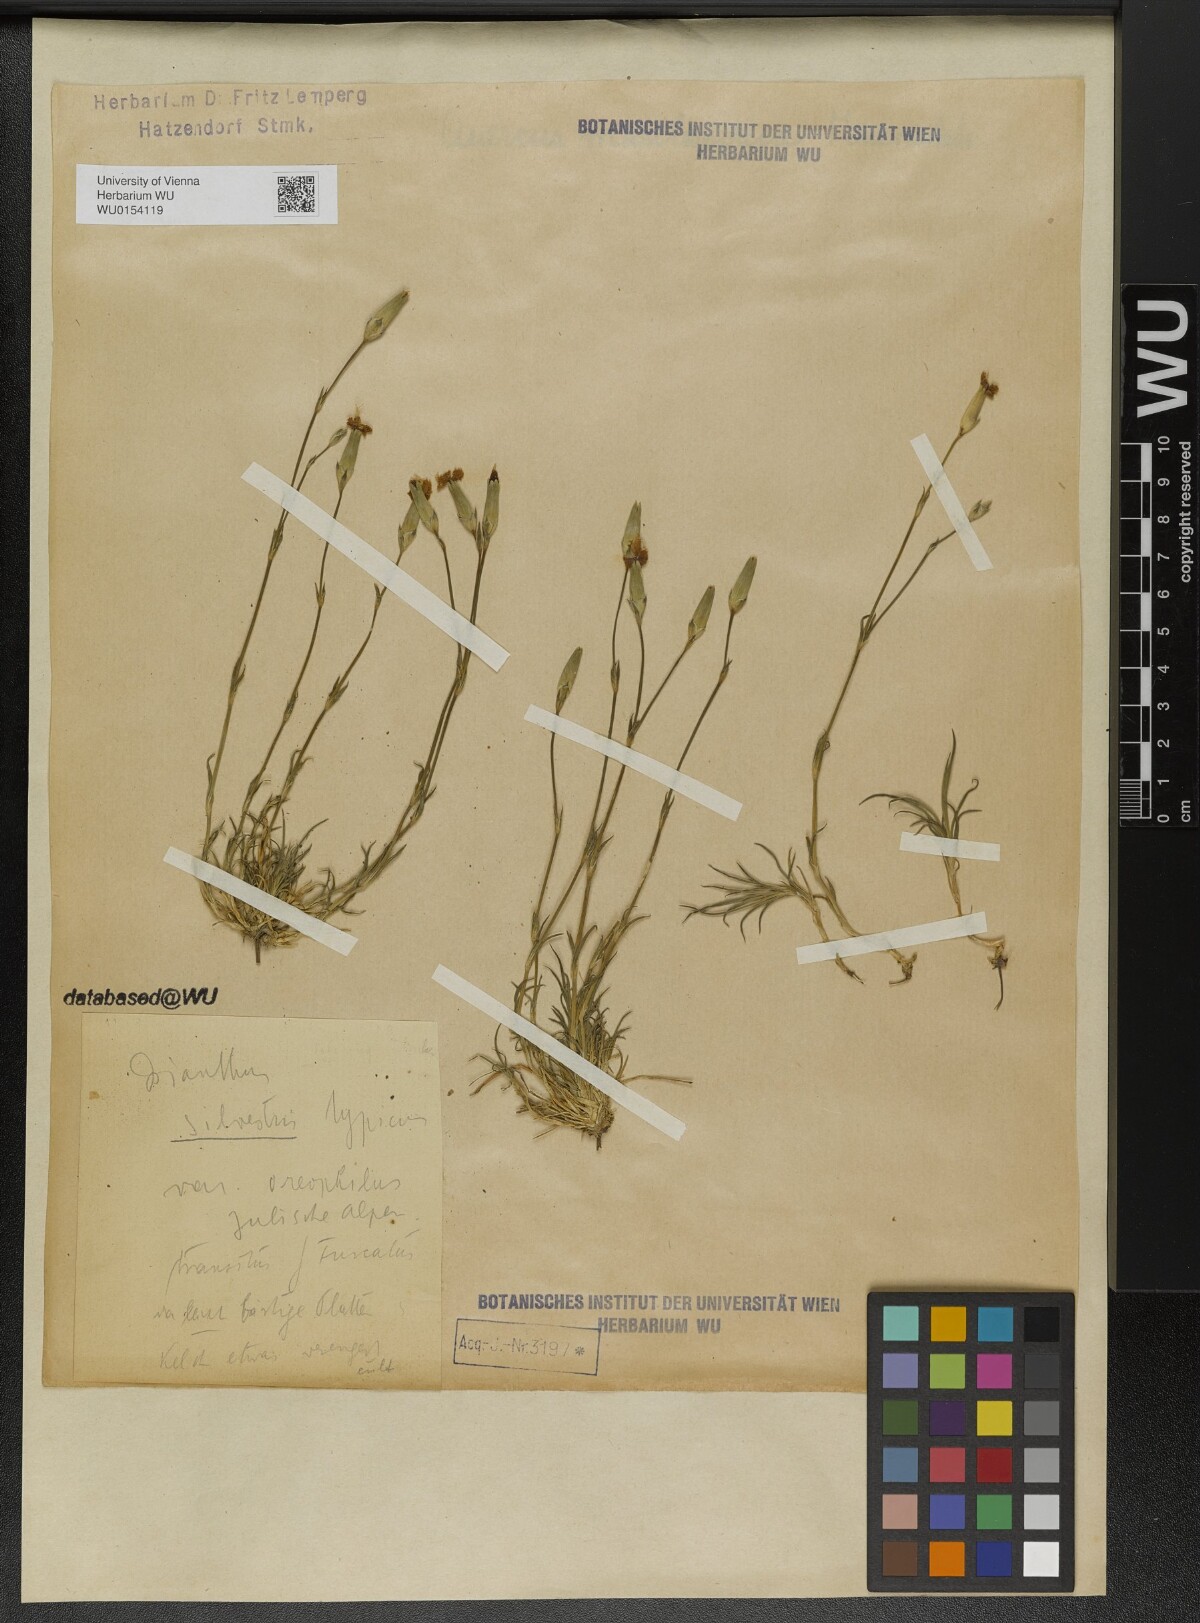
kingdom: Plantae
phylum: Tracheophyta
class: Magnoliopsida
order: Caryophyllales
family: Caryophyllaceae
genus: Dianthus
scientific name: Dianthus sylvestris
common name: Wood pink
